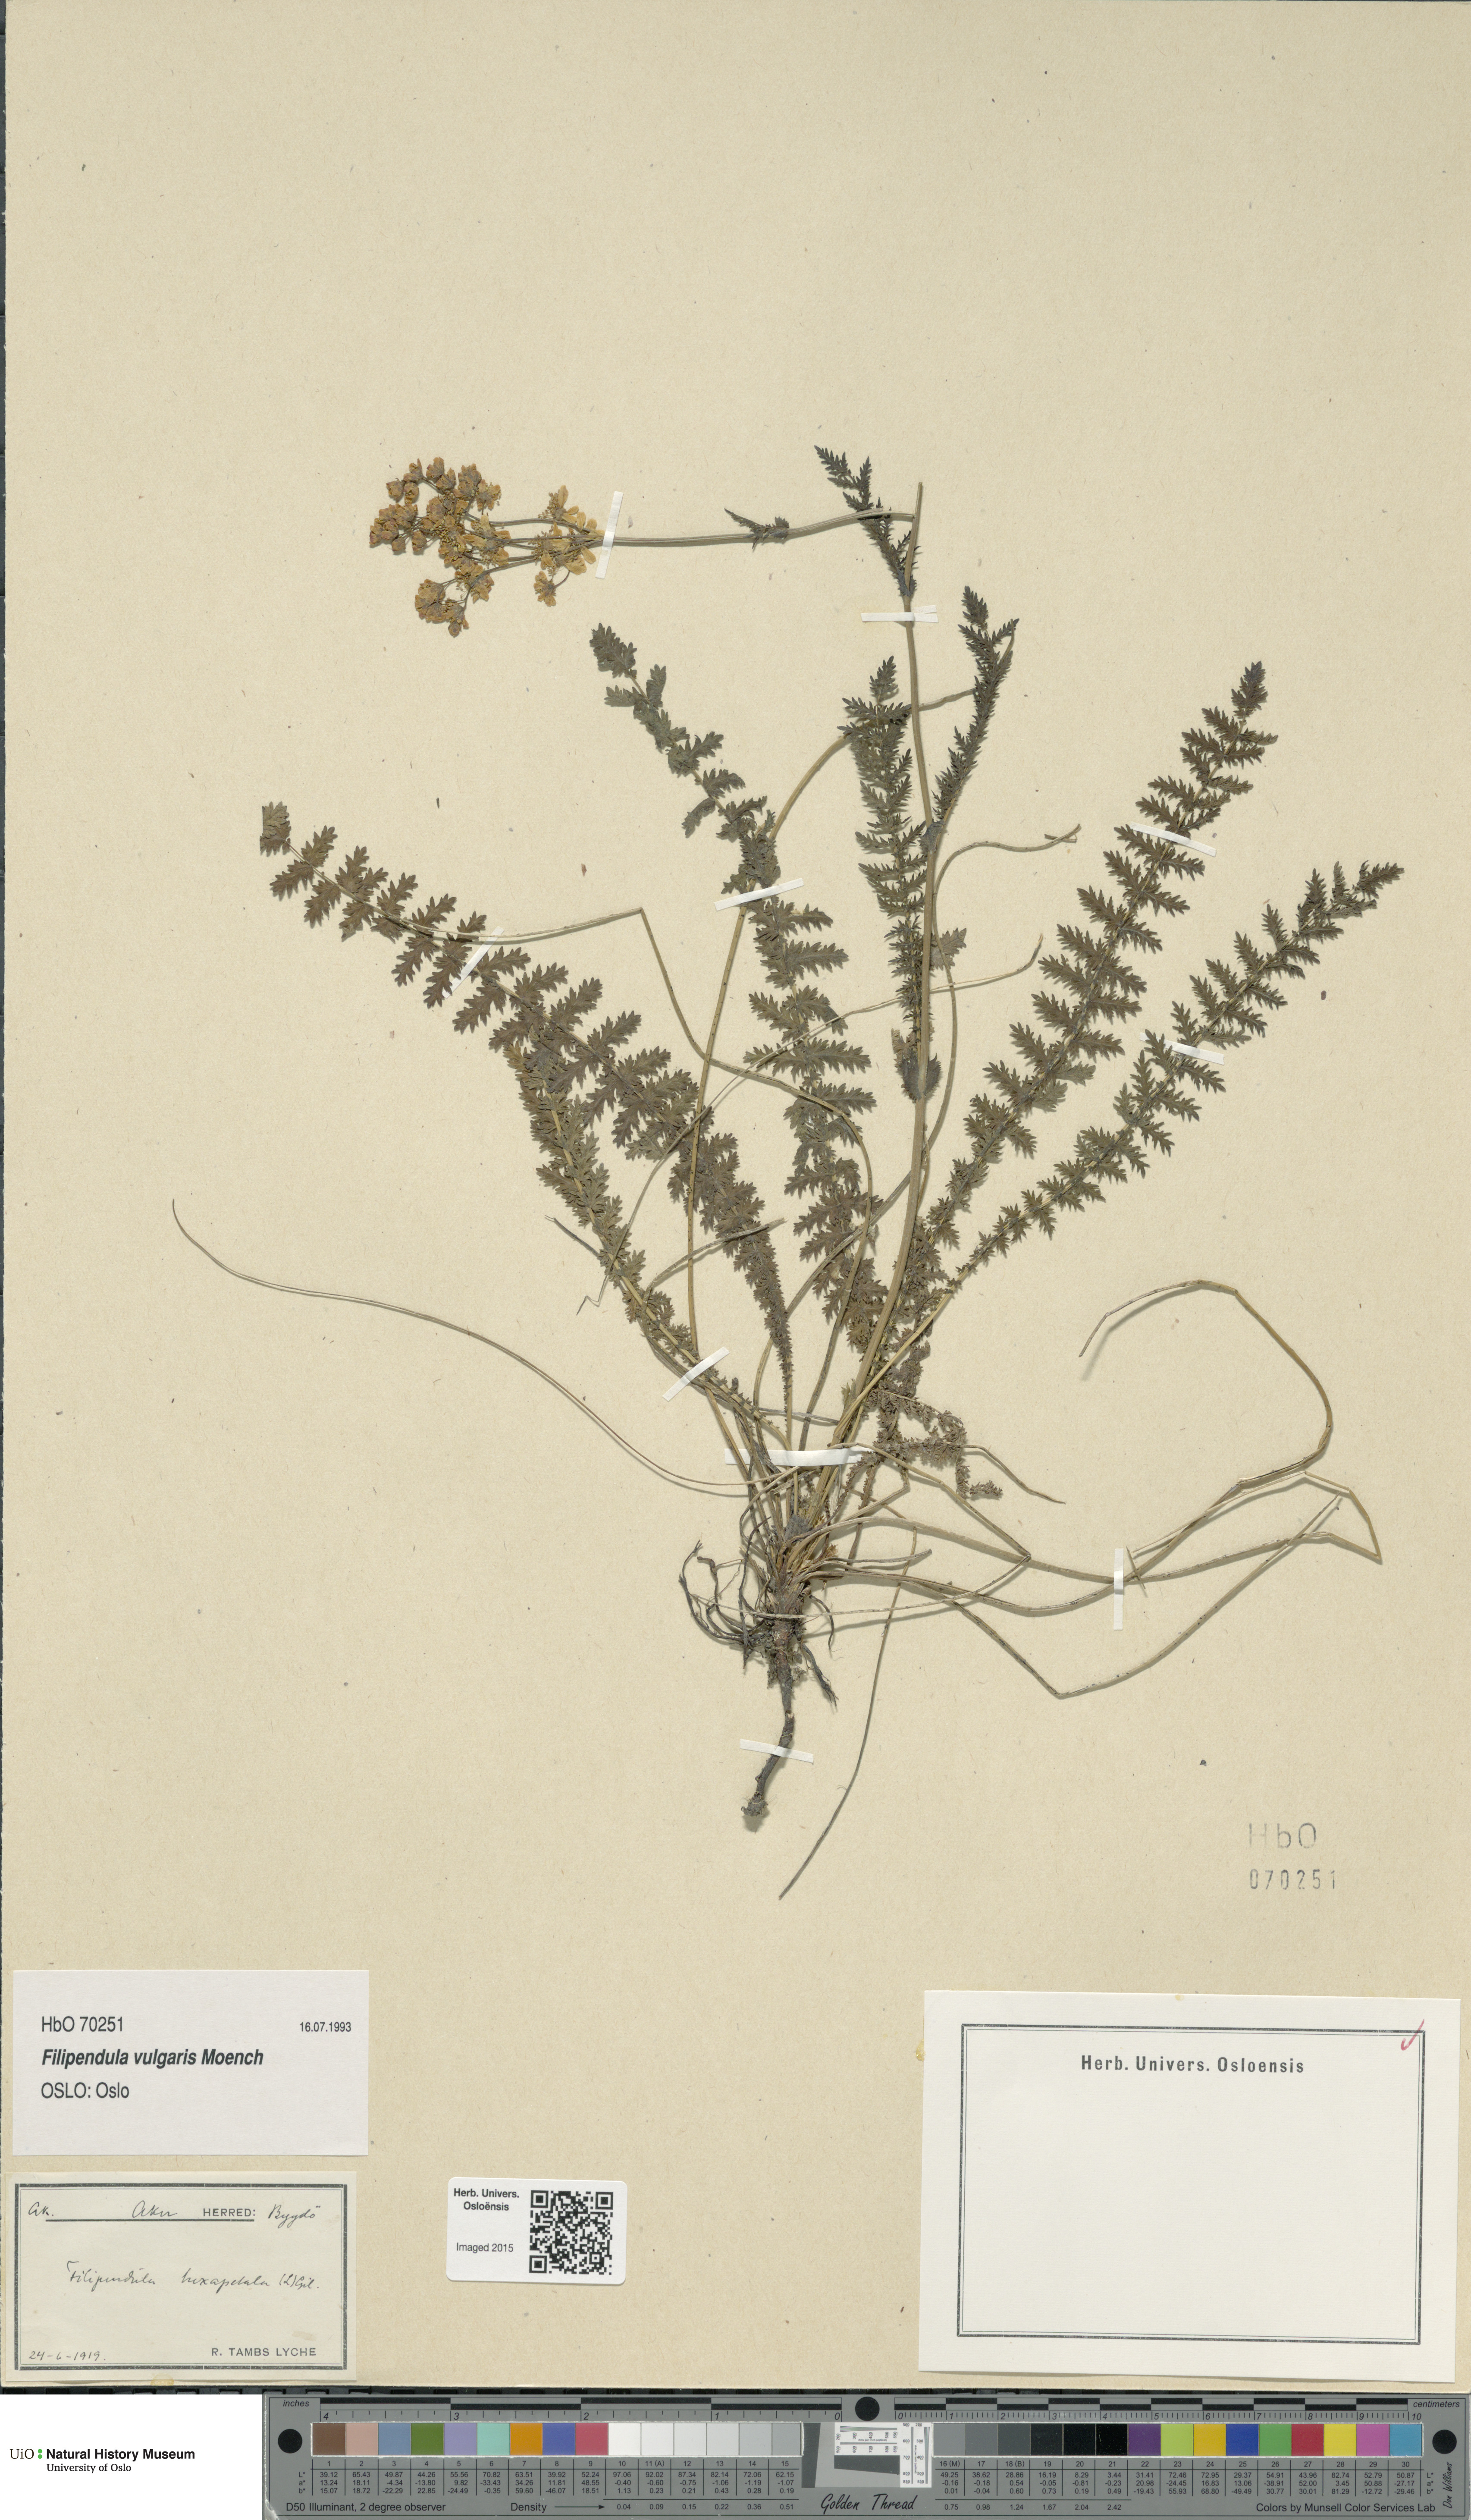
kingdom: Plantae
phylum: Tracheophyta
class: Magnoliopsida
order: Rosales
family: Rosaceae
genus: Filipendula
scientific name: Filipendula vulgaris
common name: Dropwort
